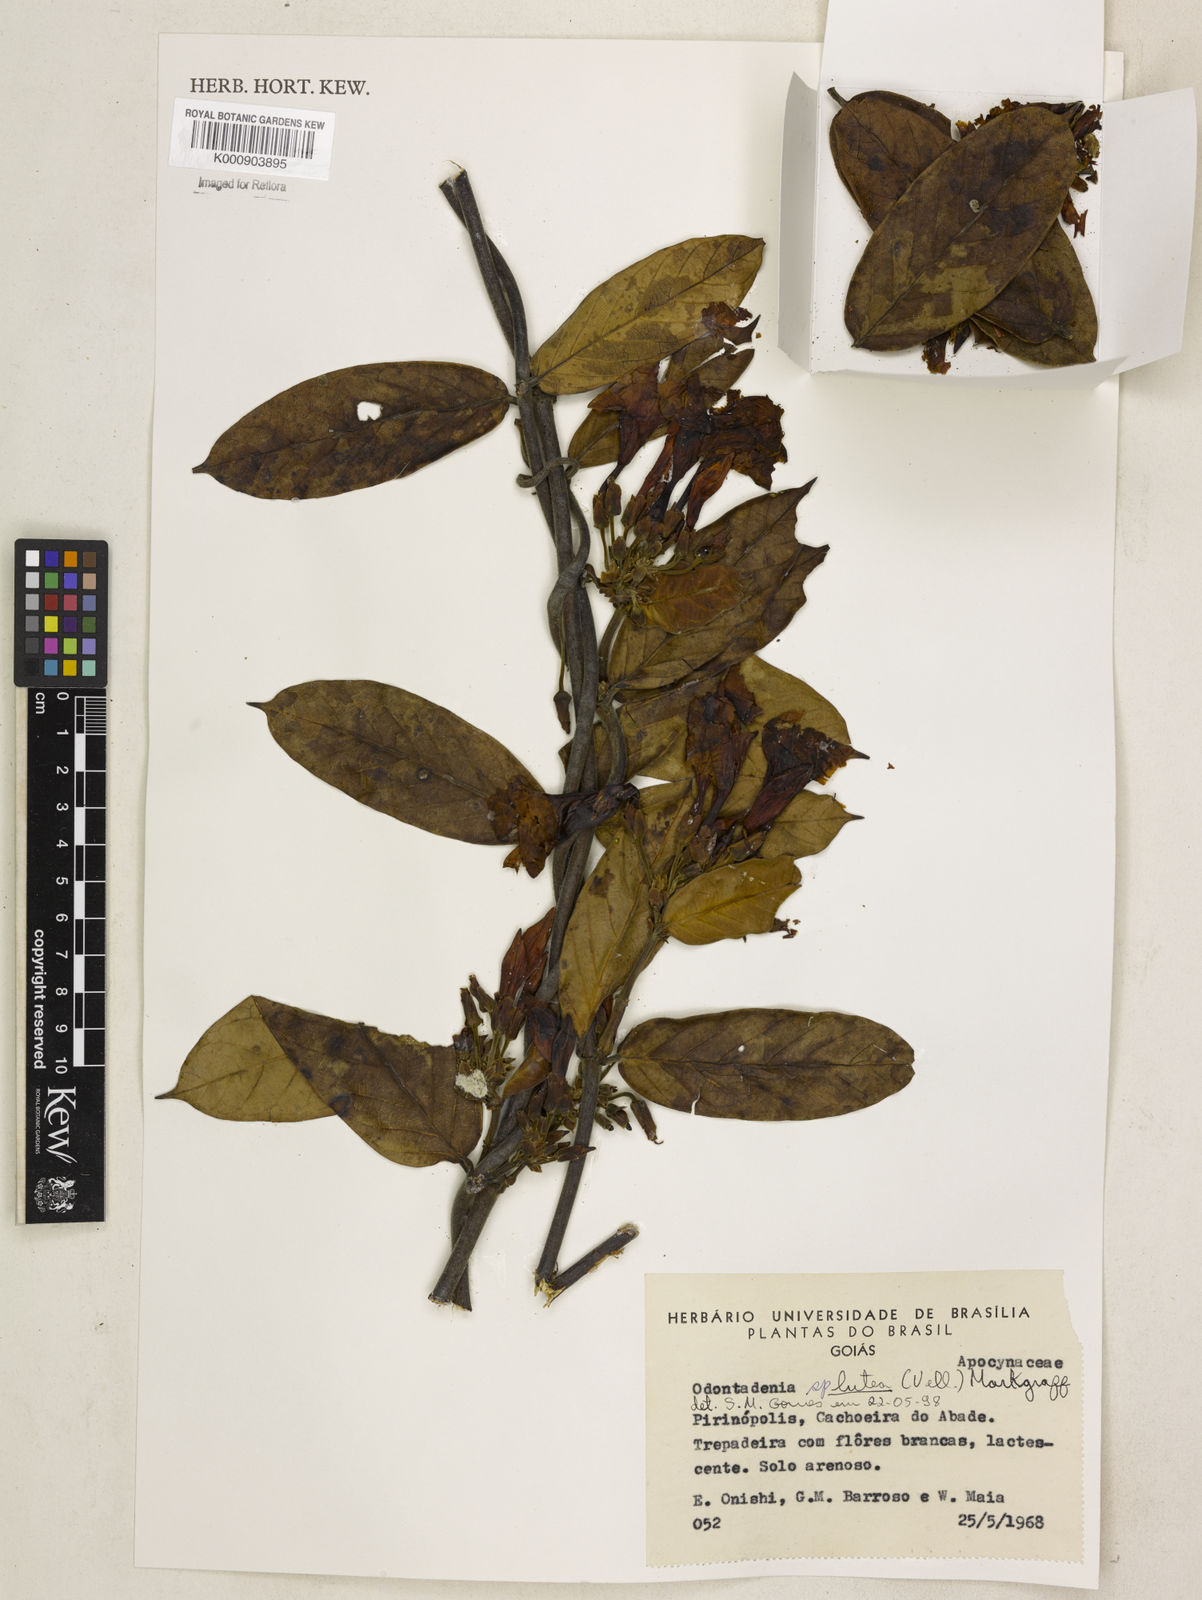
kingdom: Plantae
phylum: Tracheophyta
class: Magnoliopsida
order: Gentianales
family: Apocynaceae
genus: Odontadenia
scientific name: Odontadenia lutea
